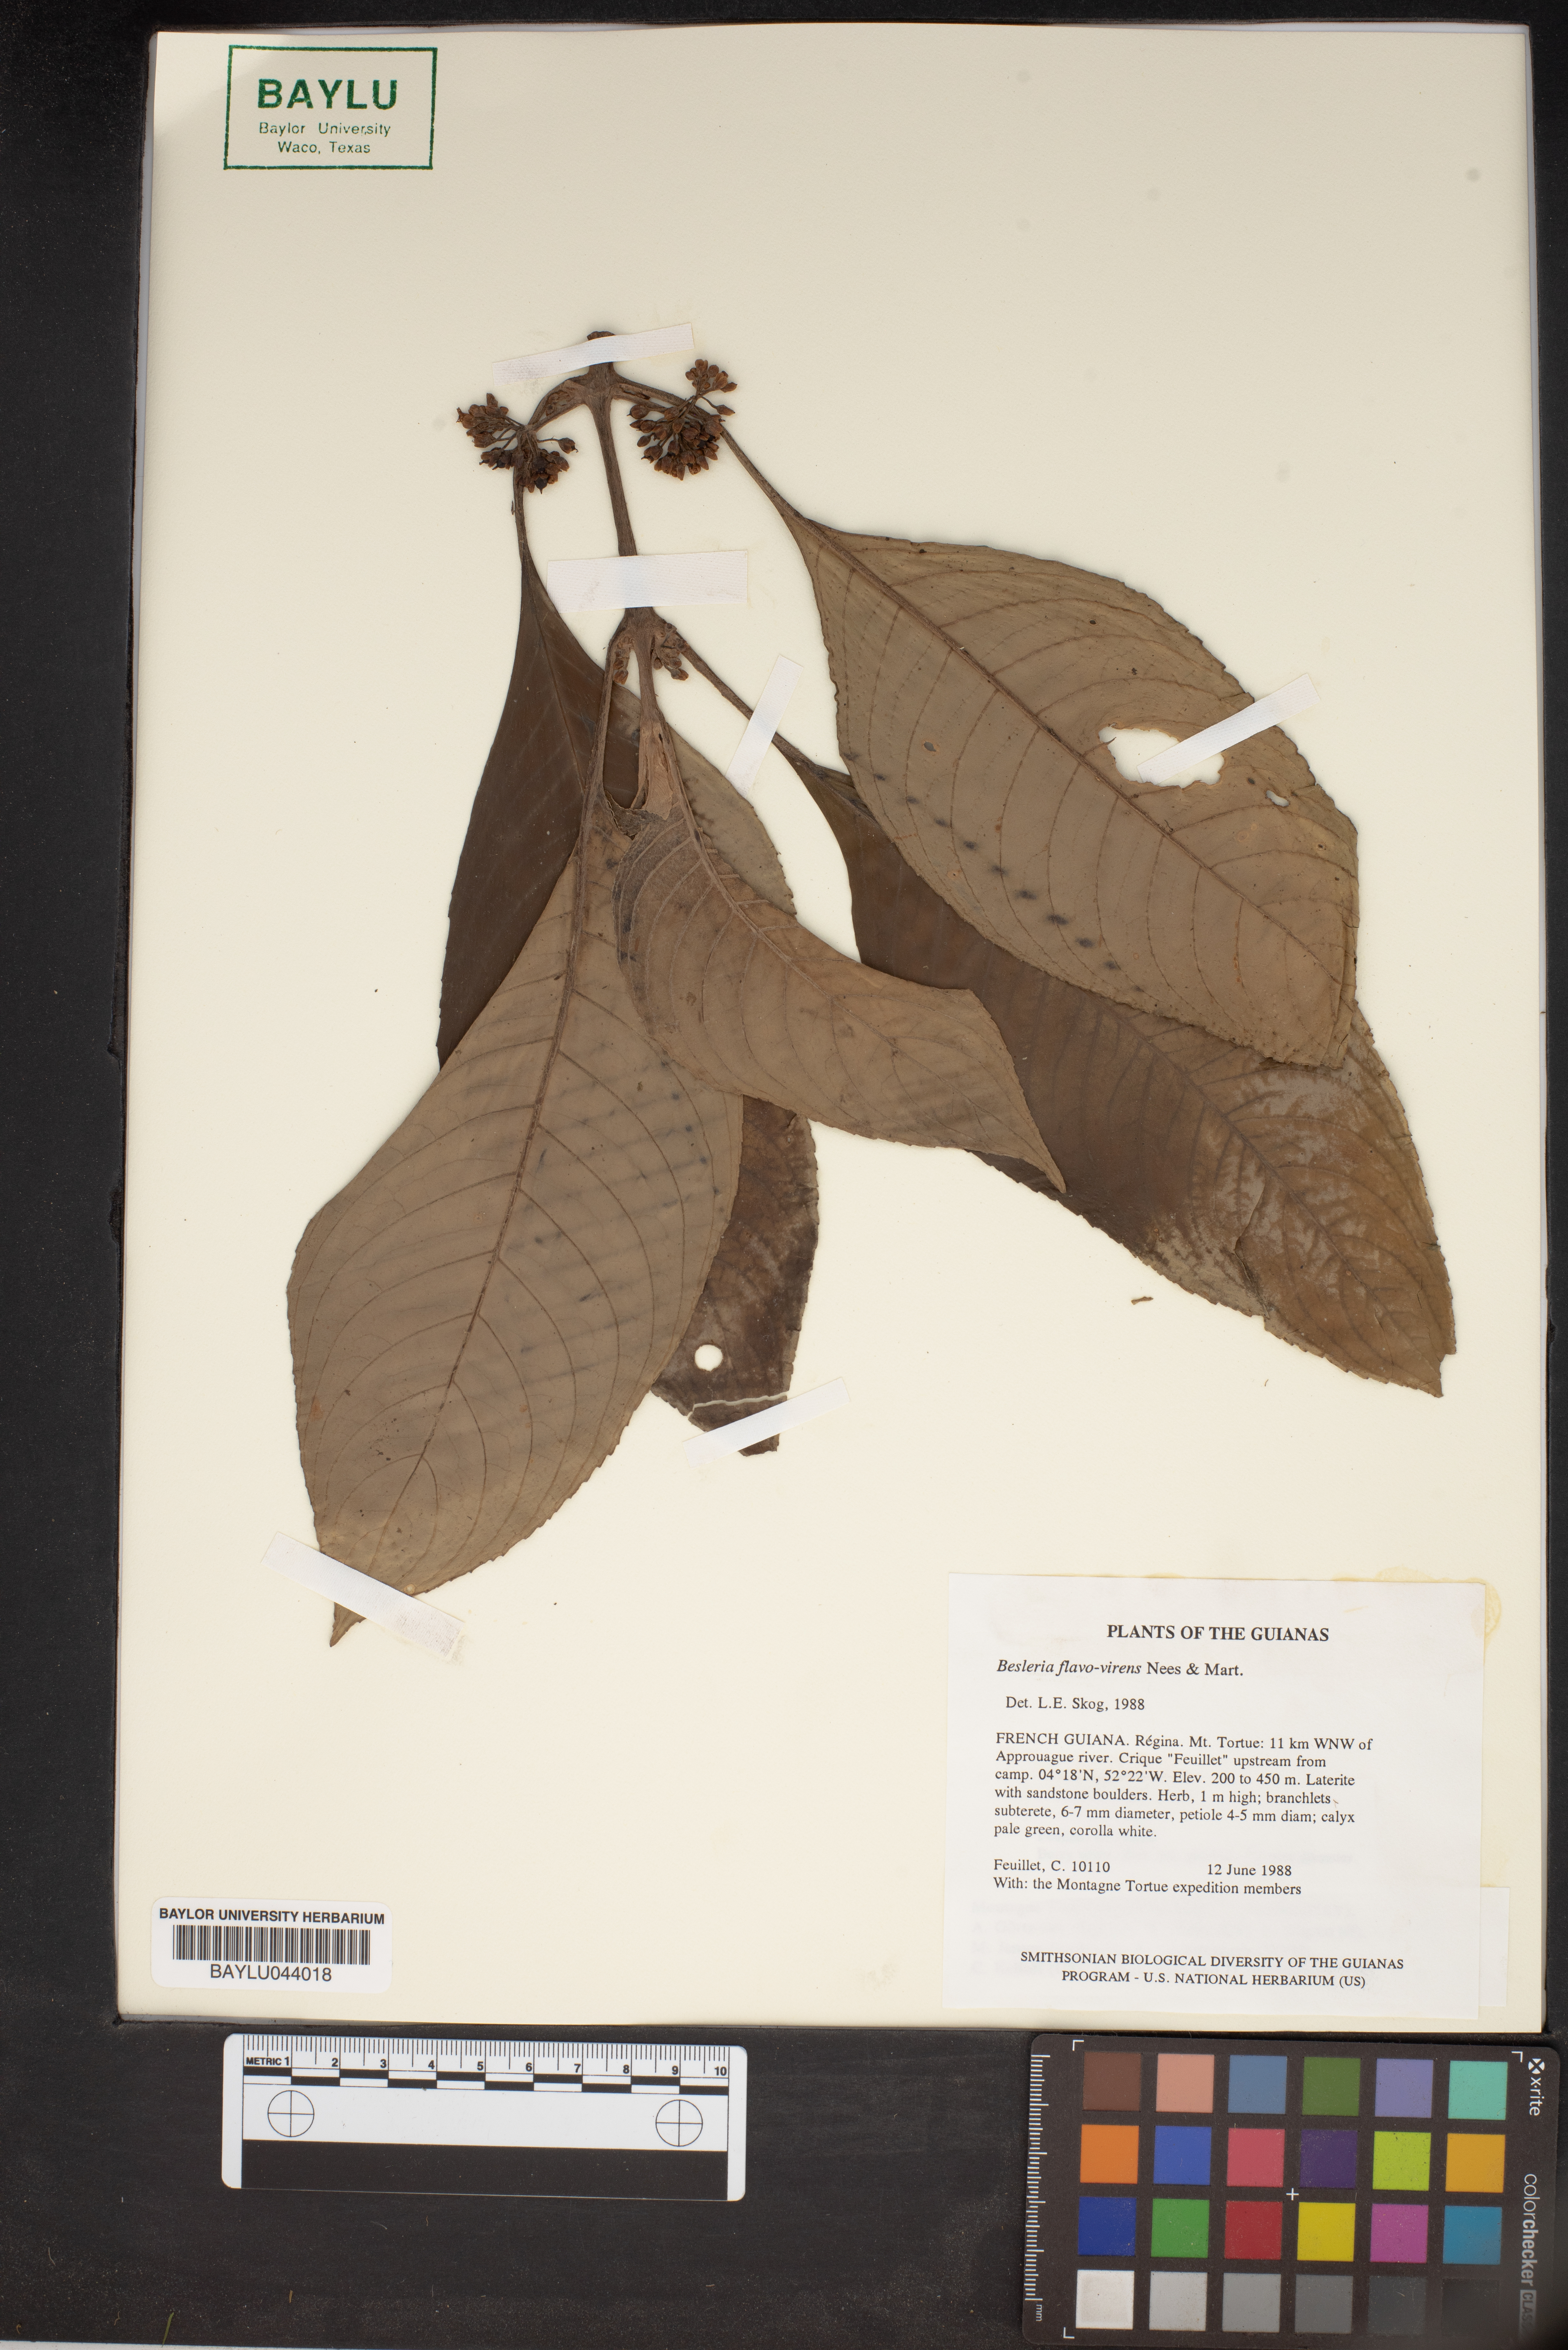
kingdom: Plantae
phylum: Tracheophyta
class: Magnoliopsida
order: Lamiales
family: Gesneriaceae
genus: Besleria
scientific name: Besleria flavovirens
